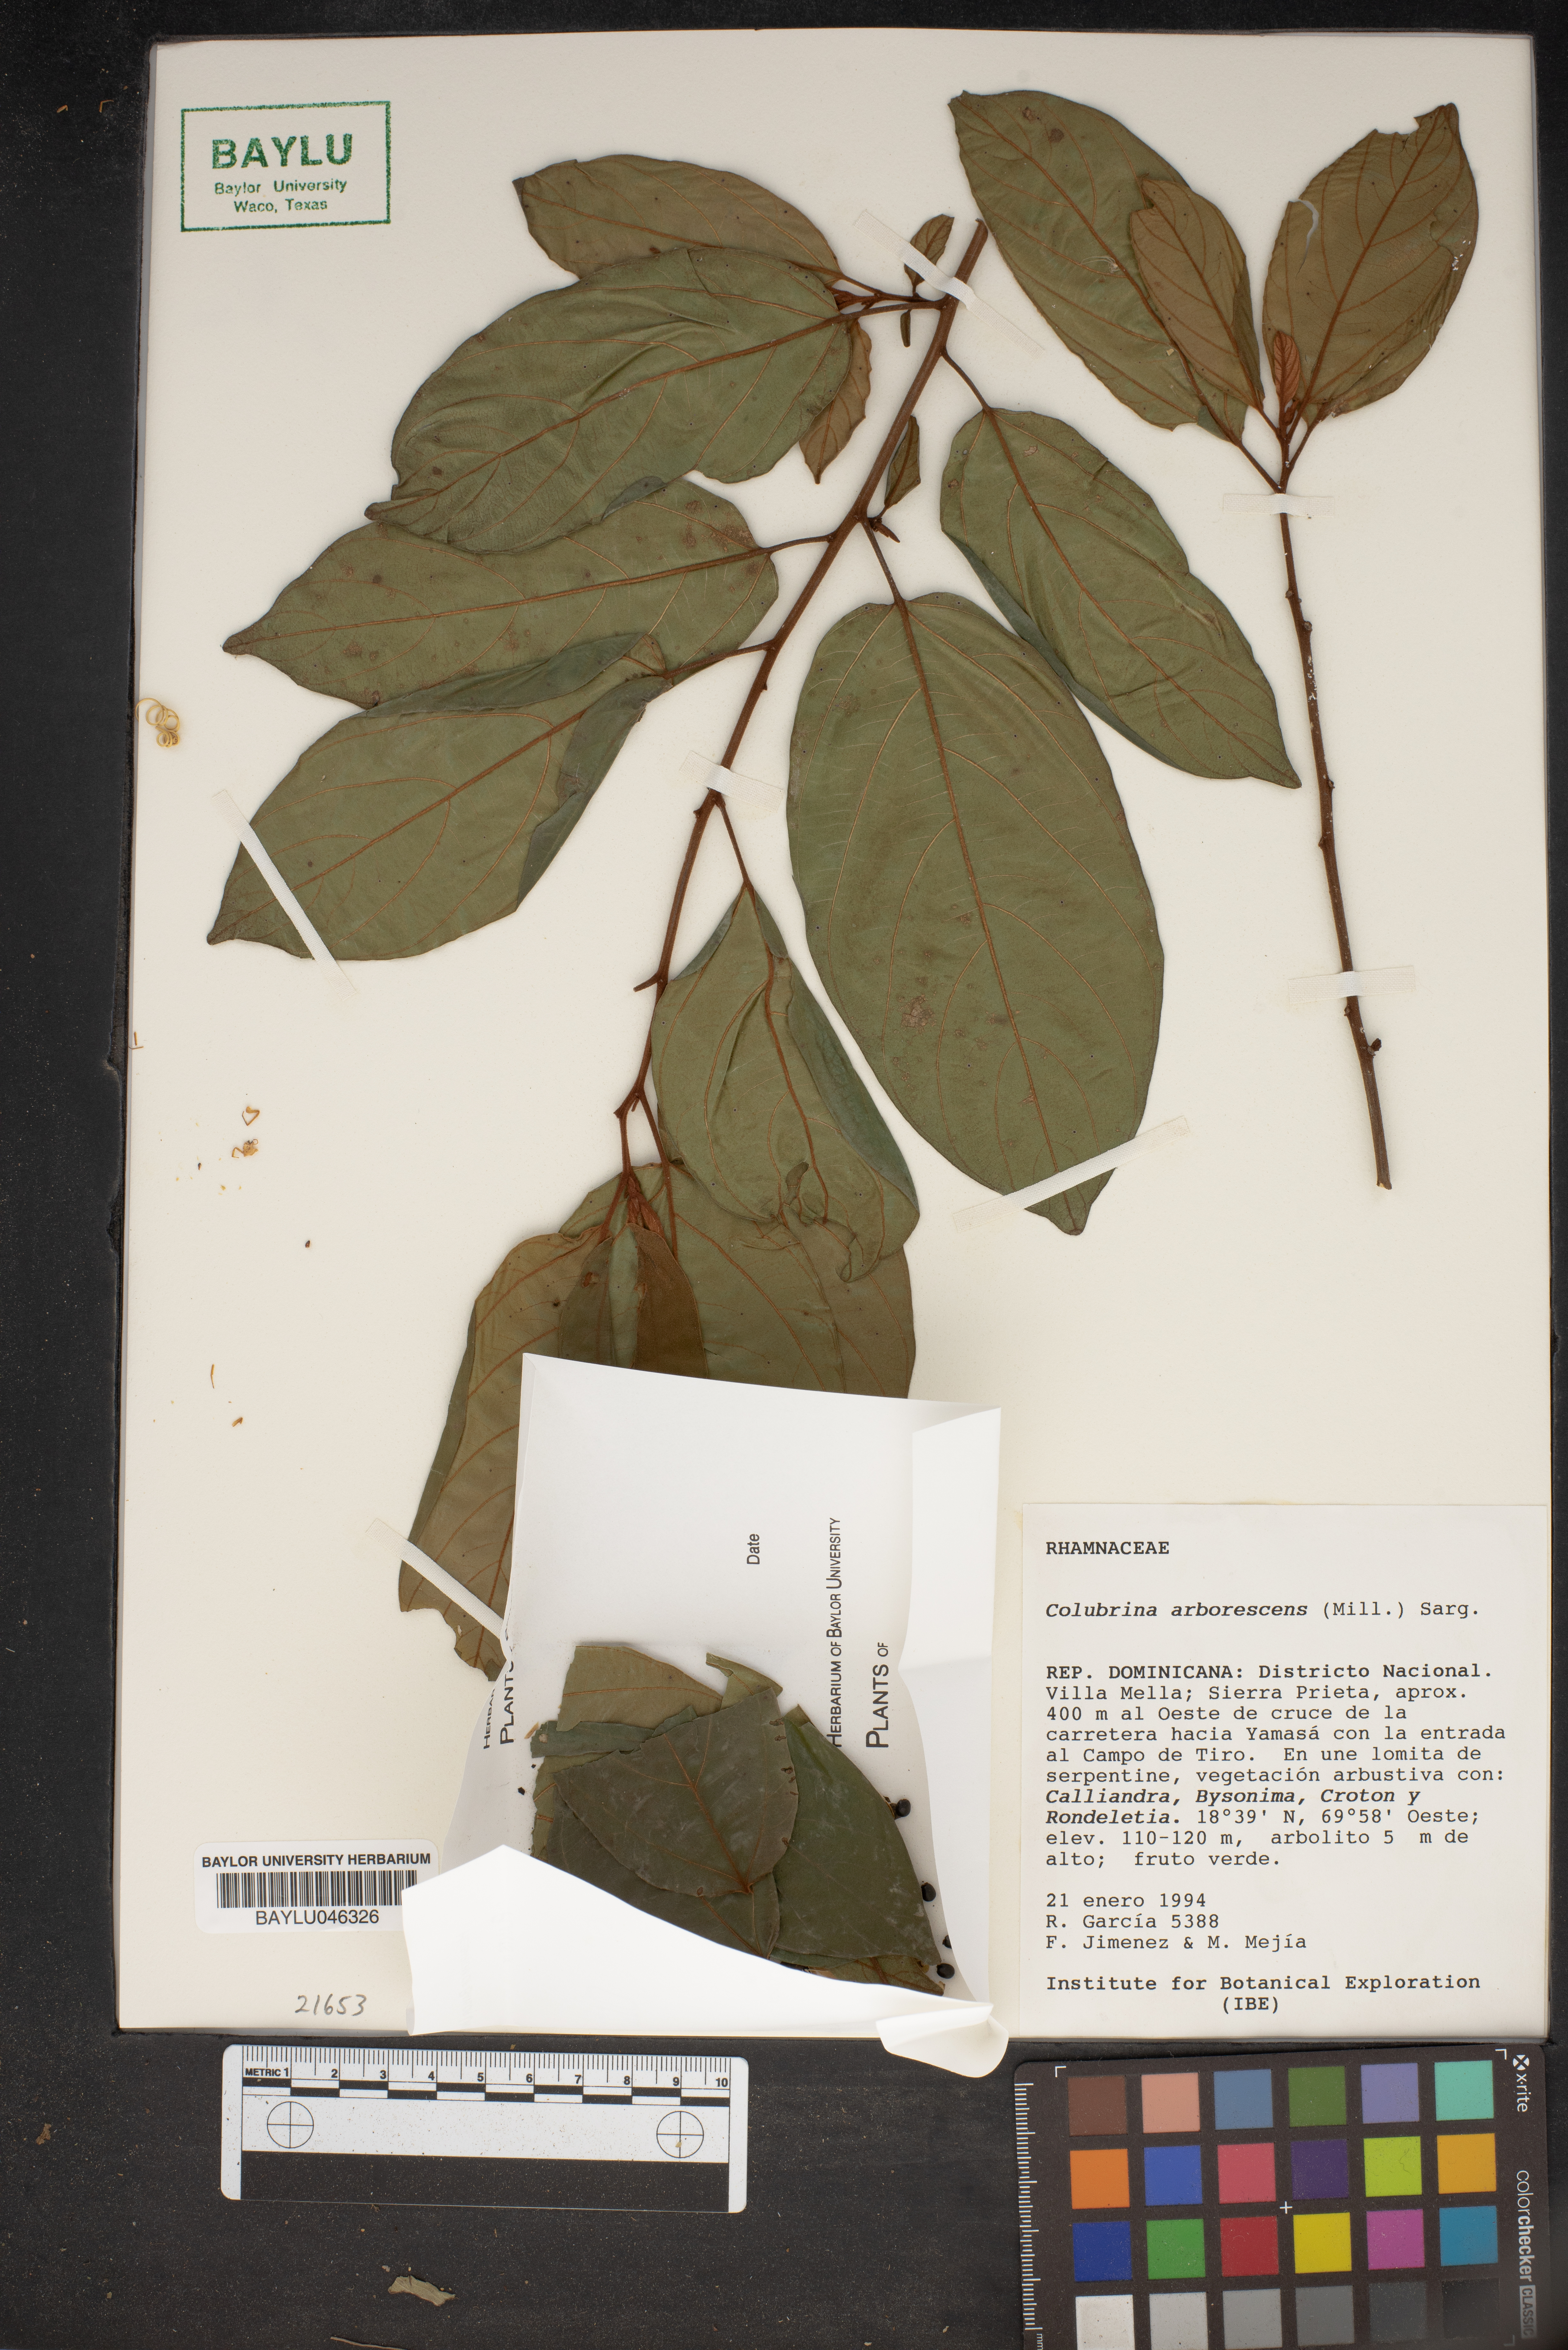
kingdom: Plantae
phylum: Tracheophyta
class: Magnoliopsida
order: Rosales
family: Rhamnaceae
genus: Colubrina
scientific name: Colubrina arborescens
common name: Wild coffee
